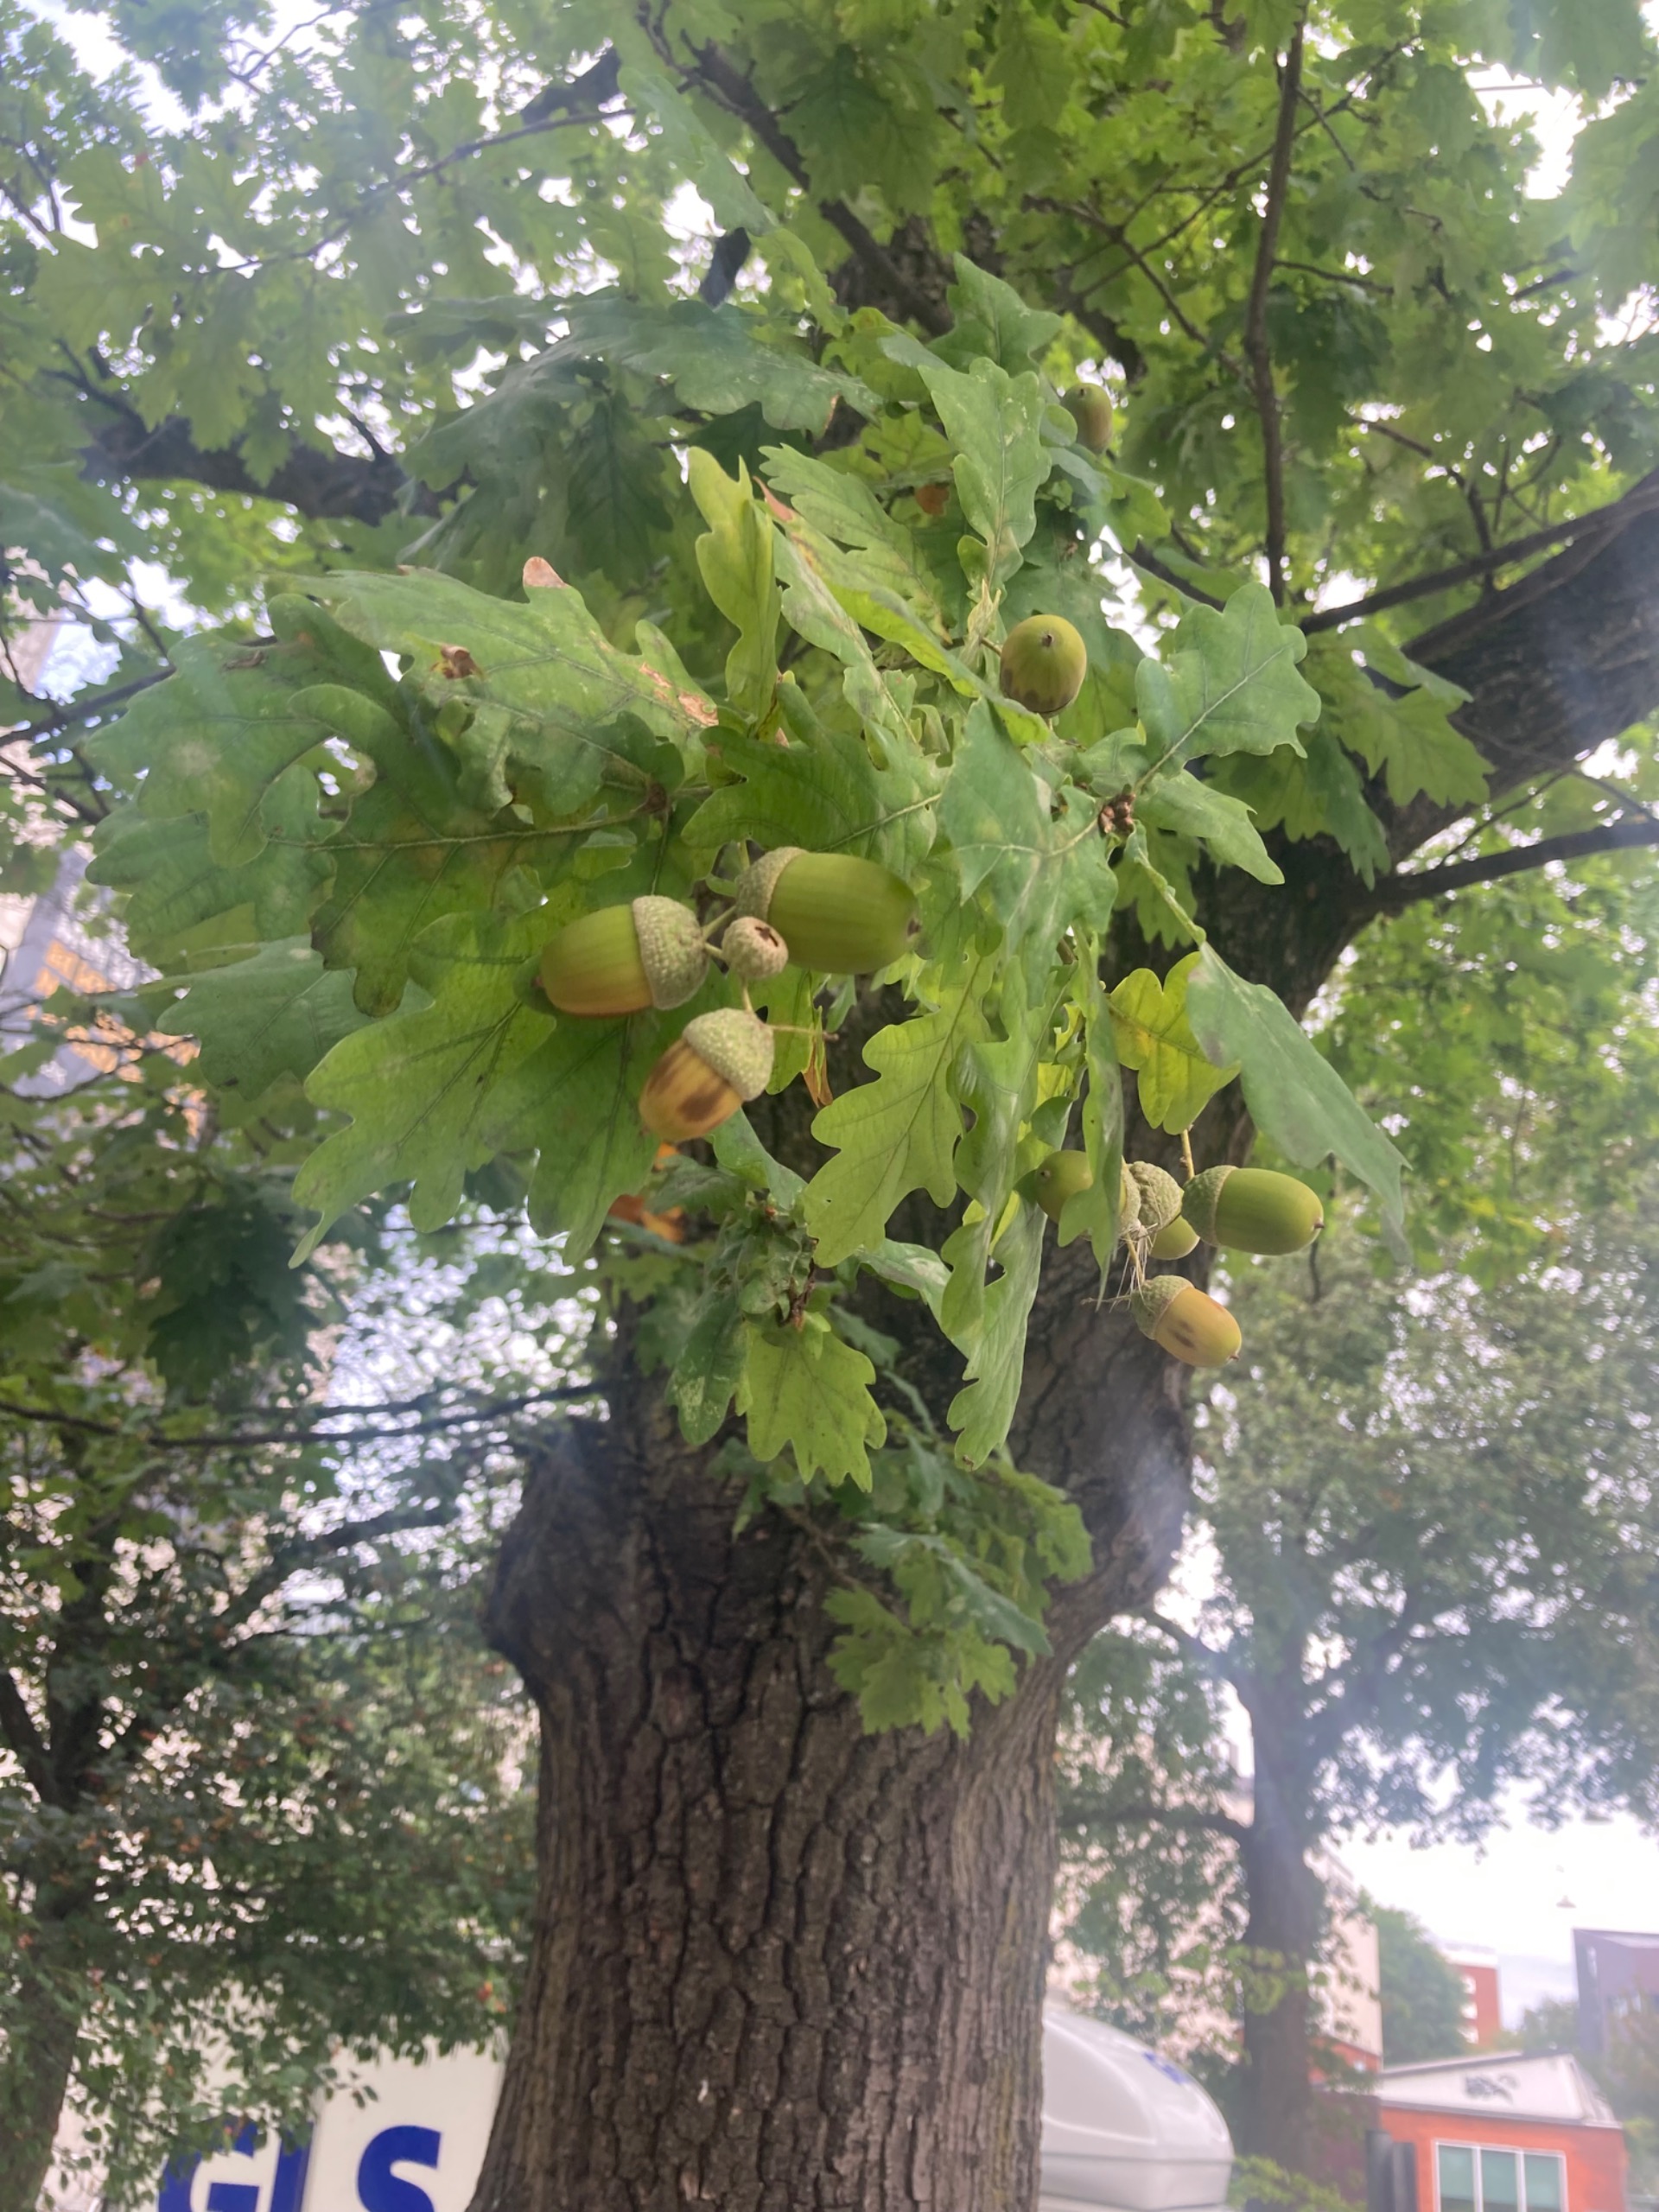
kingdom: Plantae
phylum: Tracheophyta
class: Magnoliopsida
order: Fagales
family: Fagaceae
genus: Quercus
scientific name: Quercus robur
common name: Stilk-eg/almindelig eg
